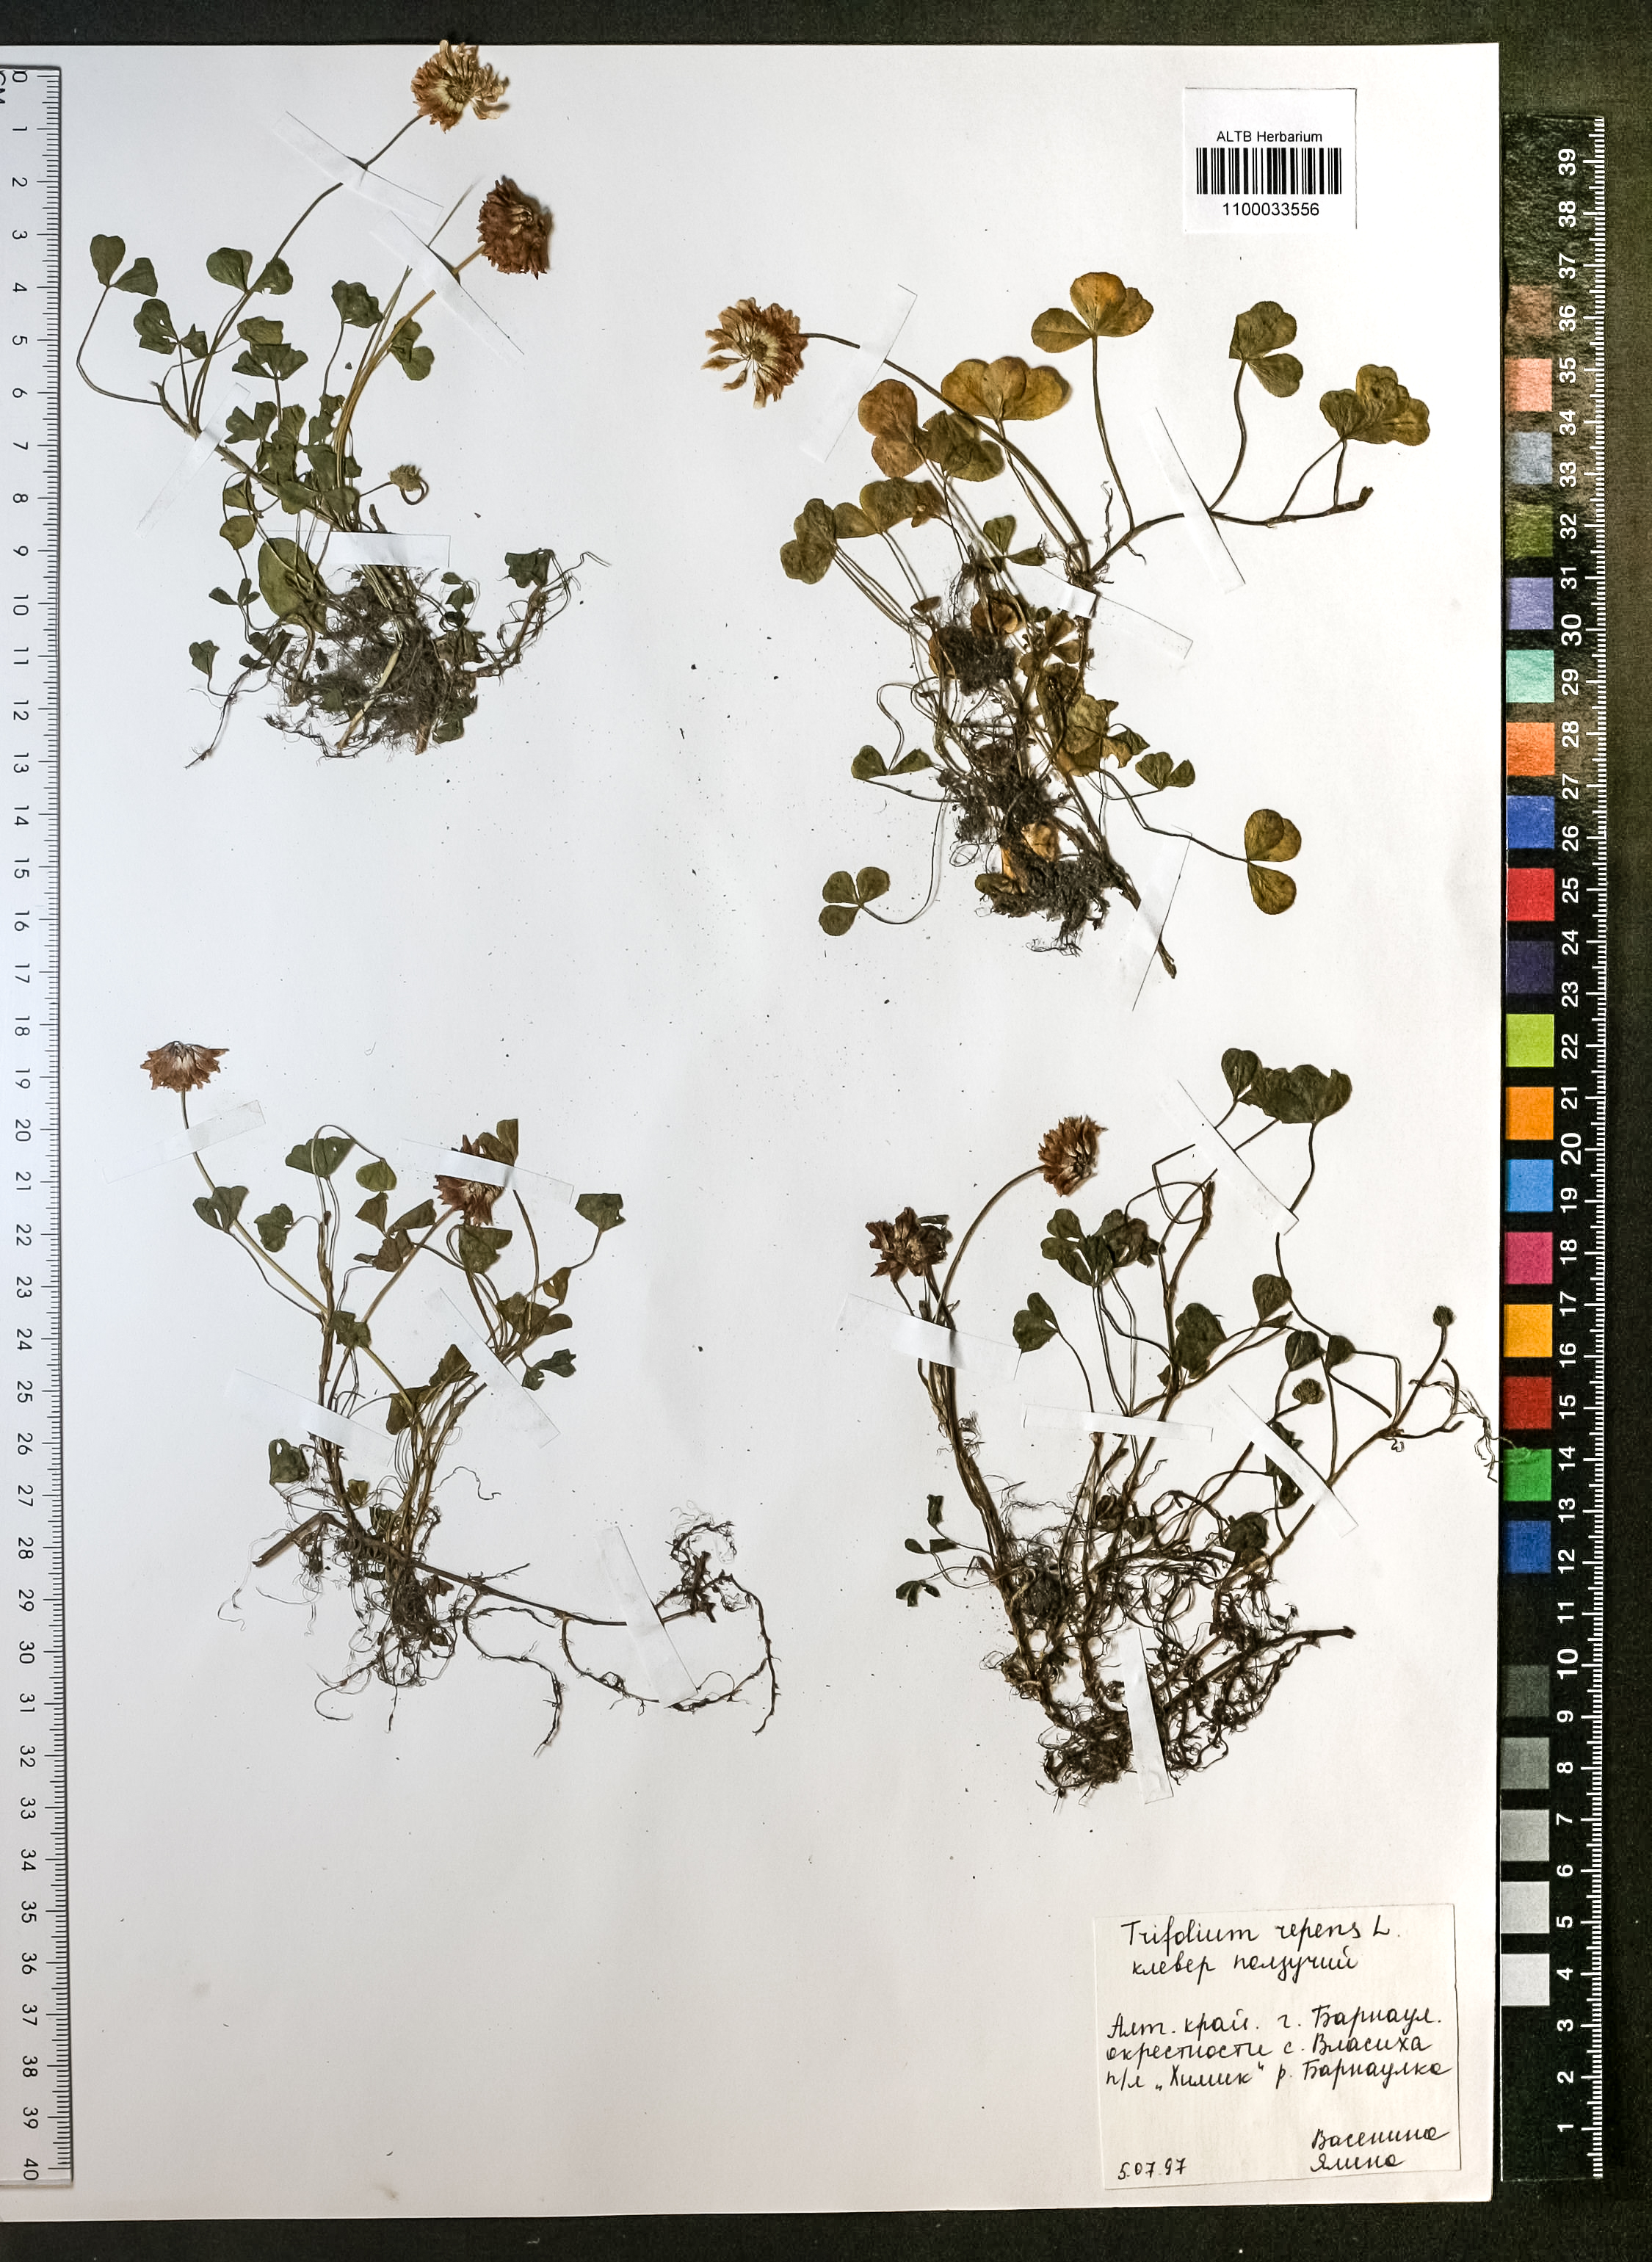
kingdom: Plantae
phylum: Tracheophyta
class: Magnoliopsida
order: Fabales
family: Fabaceae
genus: Trifolium
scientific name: Trifolium repens
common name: White clover
